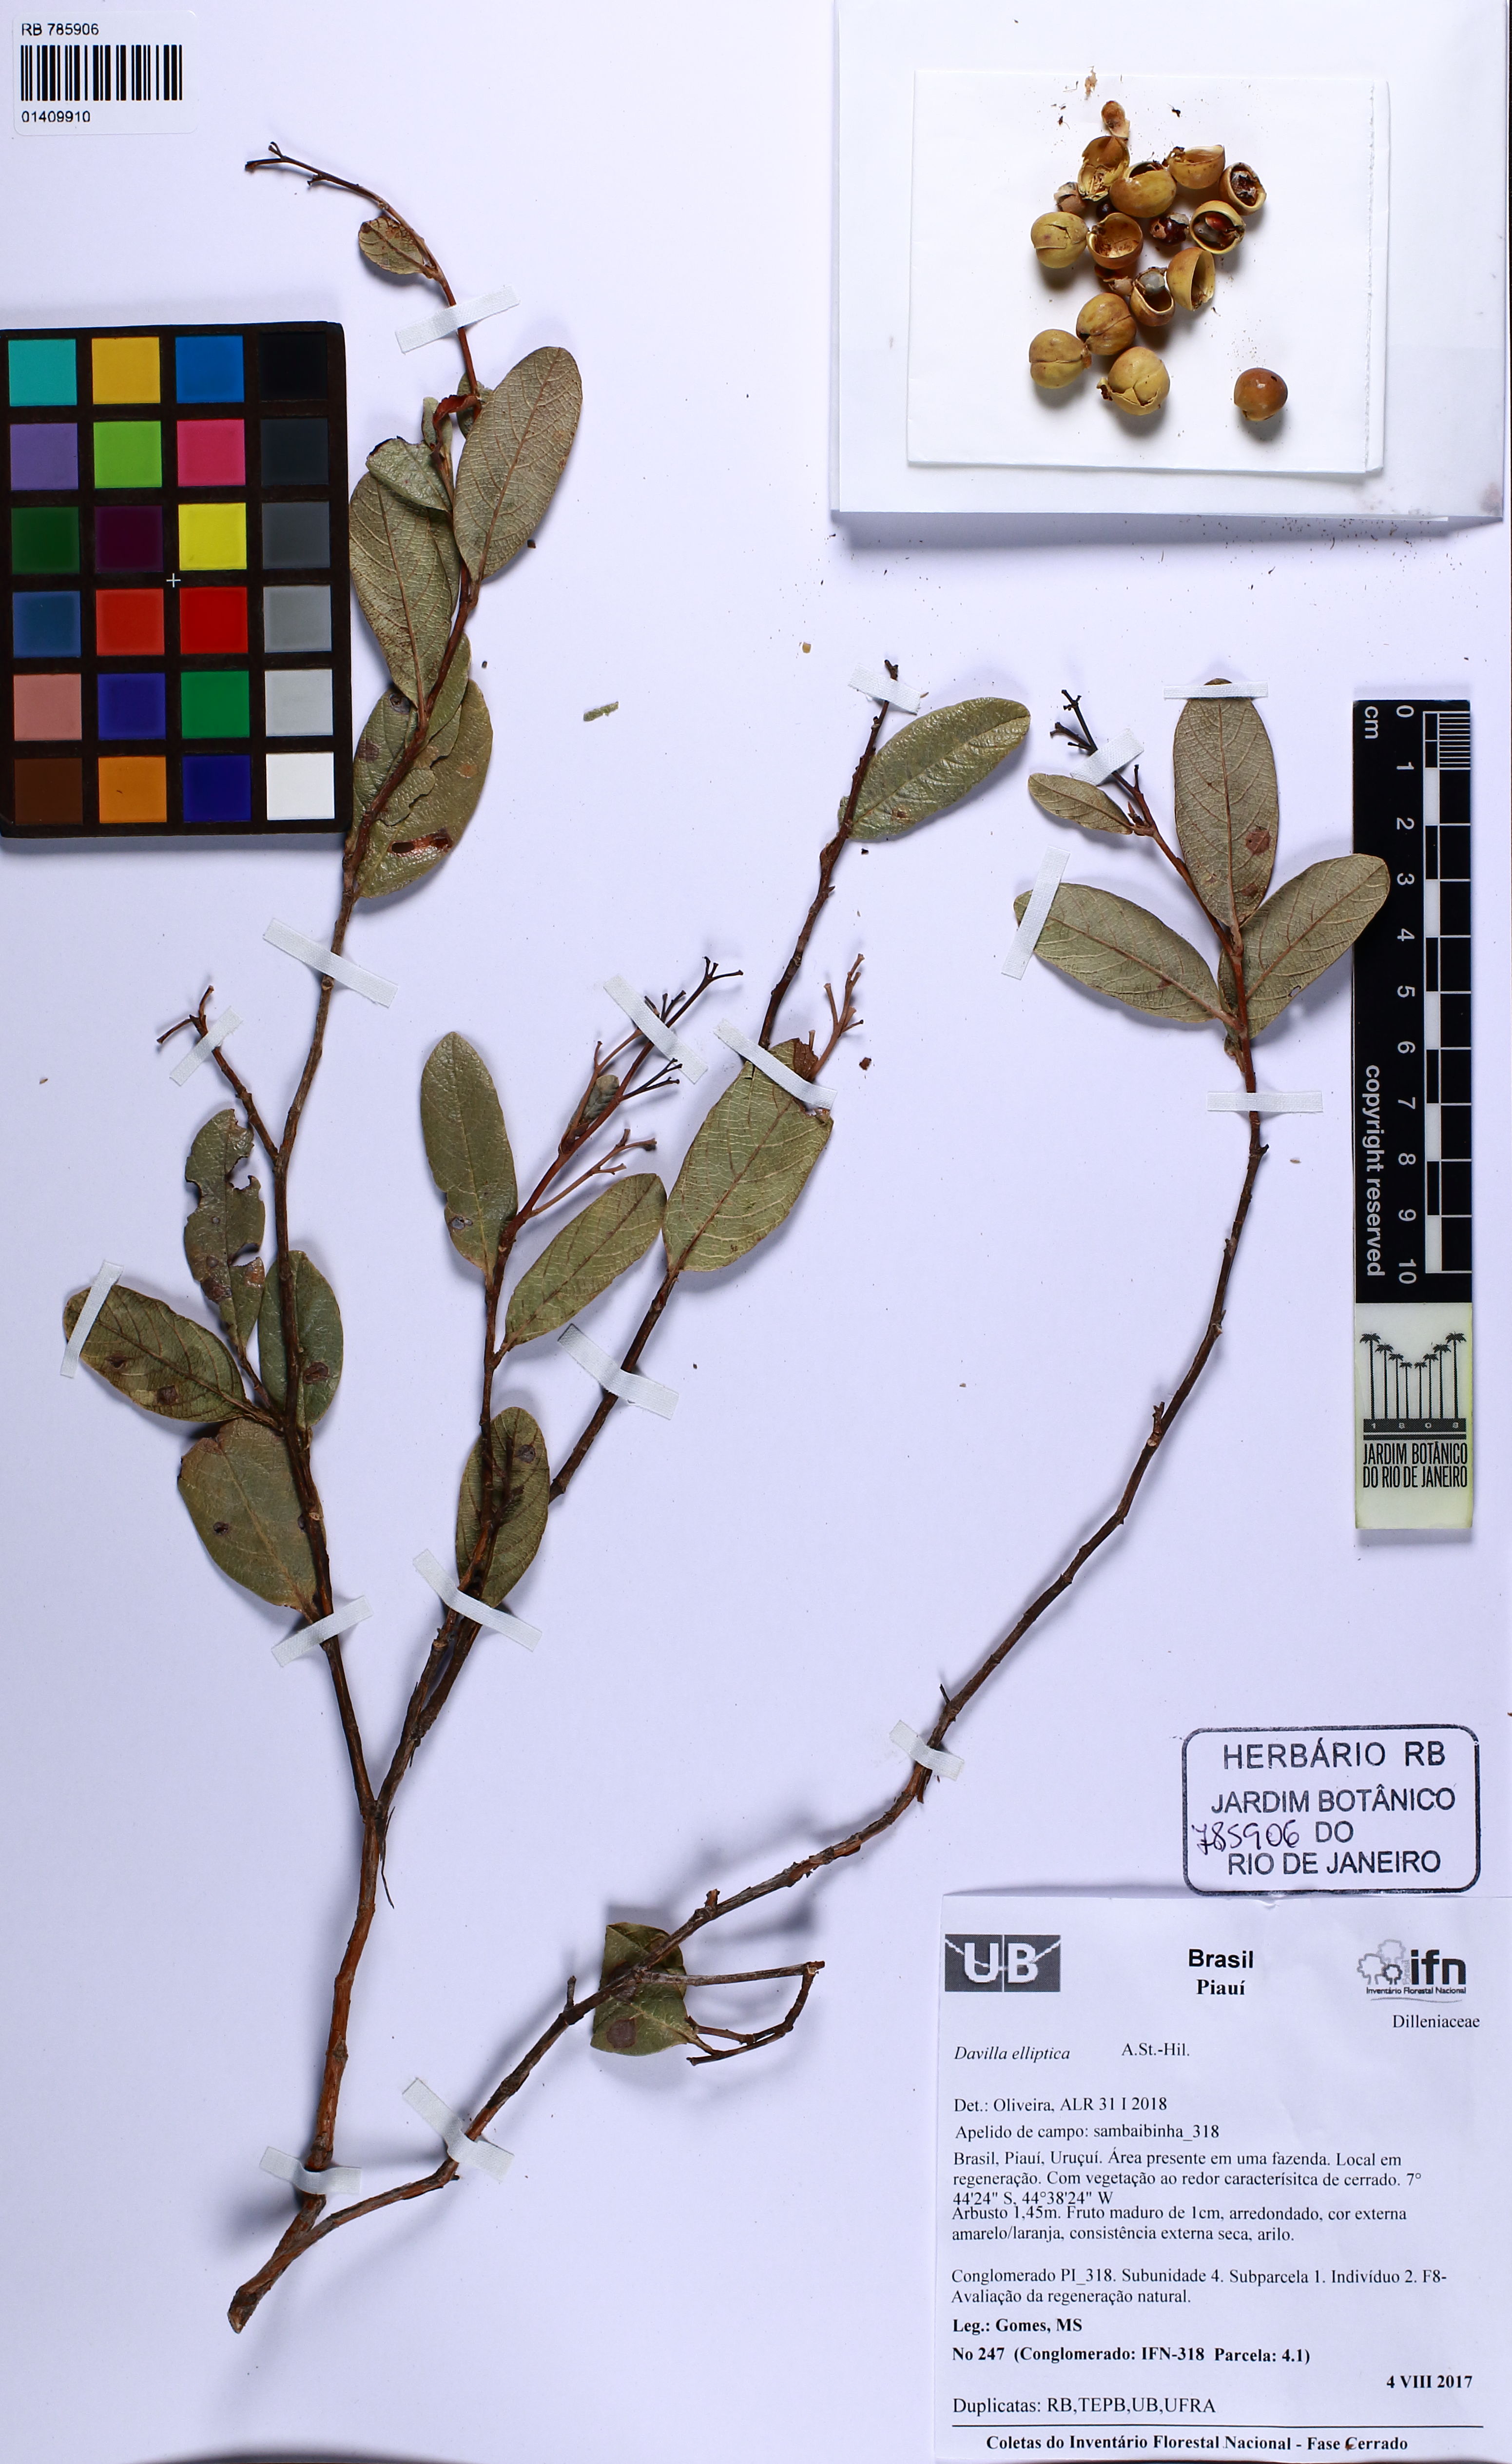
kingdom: Plantae
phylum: Tracheophyta
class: Magnoliopsida
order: Dilleniales
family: Dilleniaceae
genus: Davilla
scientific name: Davilla elliptica
